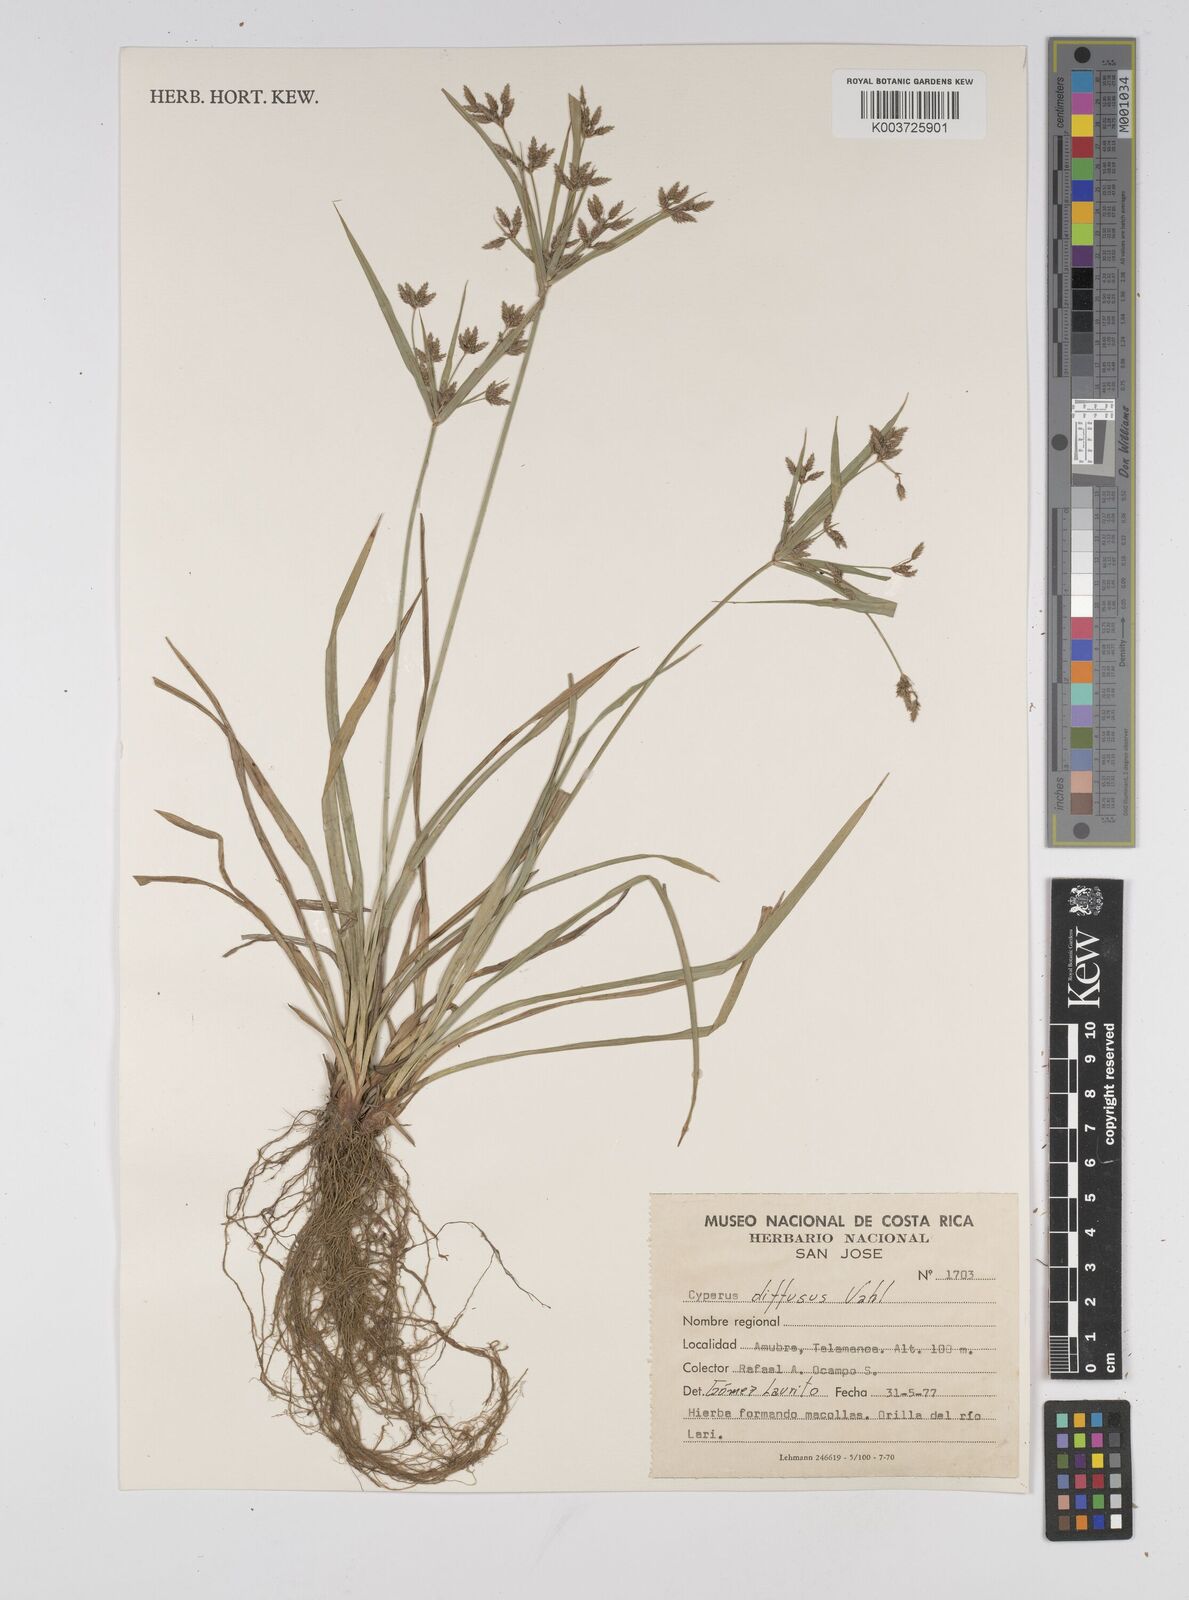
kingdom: Plantae
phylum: Tracheophyta
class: Liliopsida
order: Poales
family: Cyperaceae
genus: Cyperus
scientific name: Cyperus diffusus
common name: Dwarf umbrella grass
